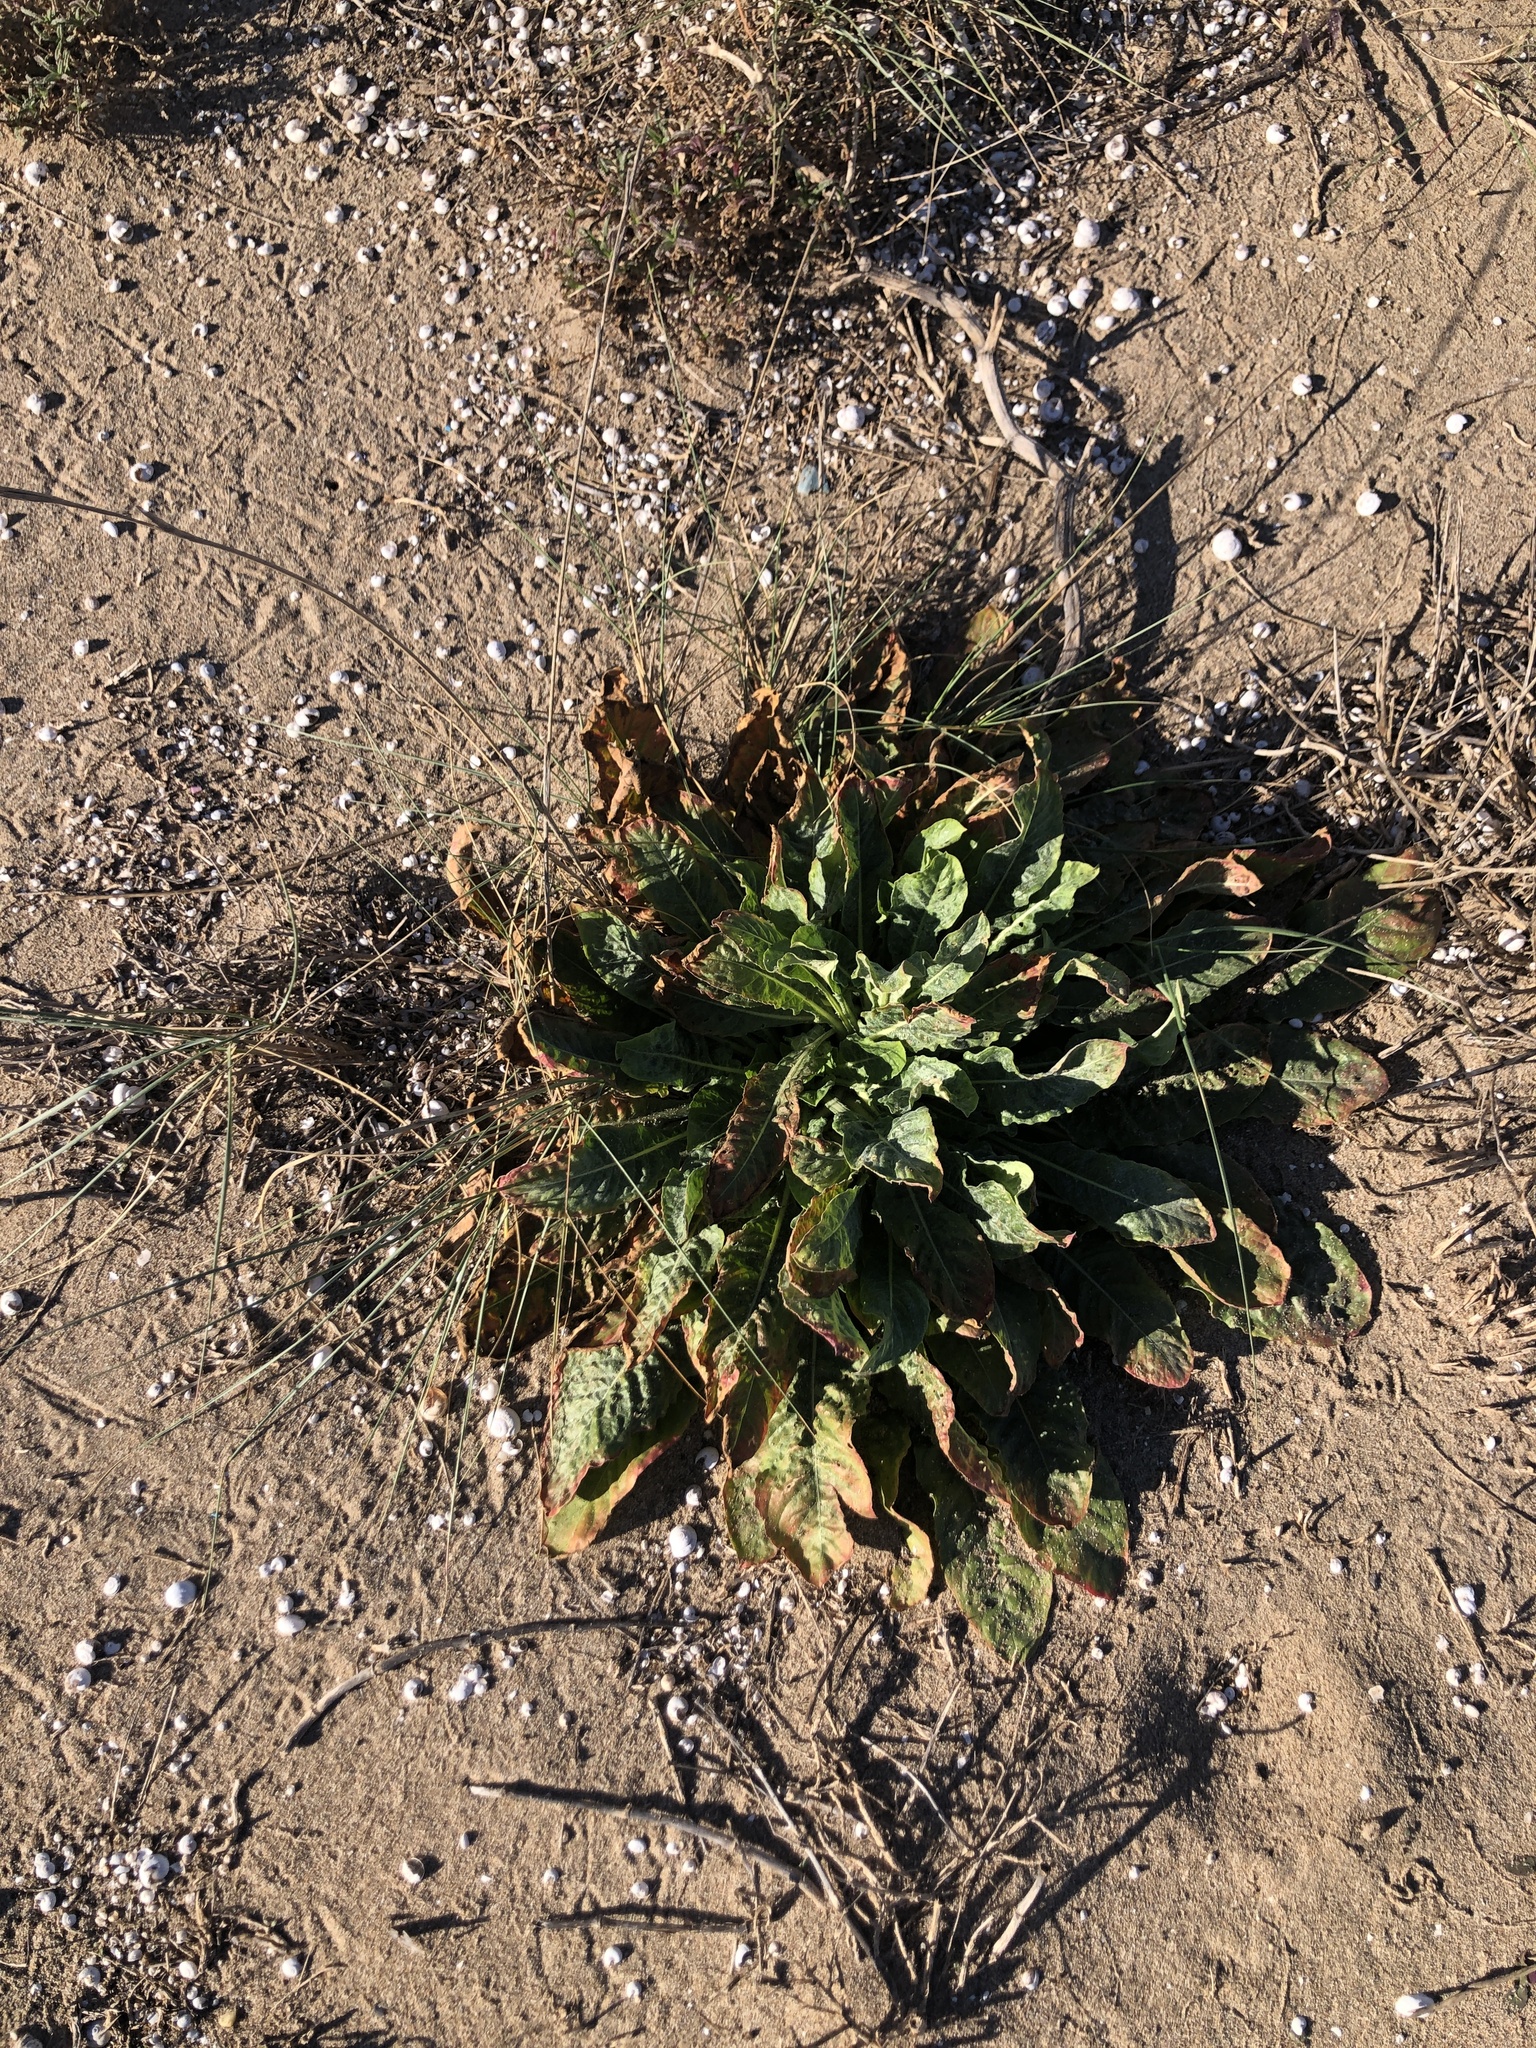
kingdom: Plantae
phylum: Tracheophyta
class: Magnoliopsida
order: Myrtales
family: Onagraceae
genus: Oenothera
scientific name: Oenothera glazioviana
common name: Large-flowered evening-primrose
